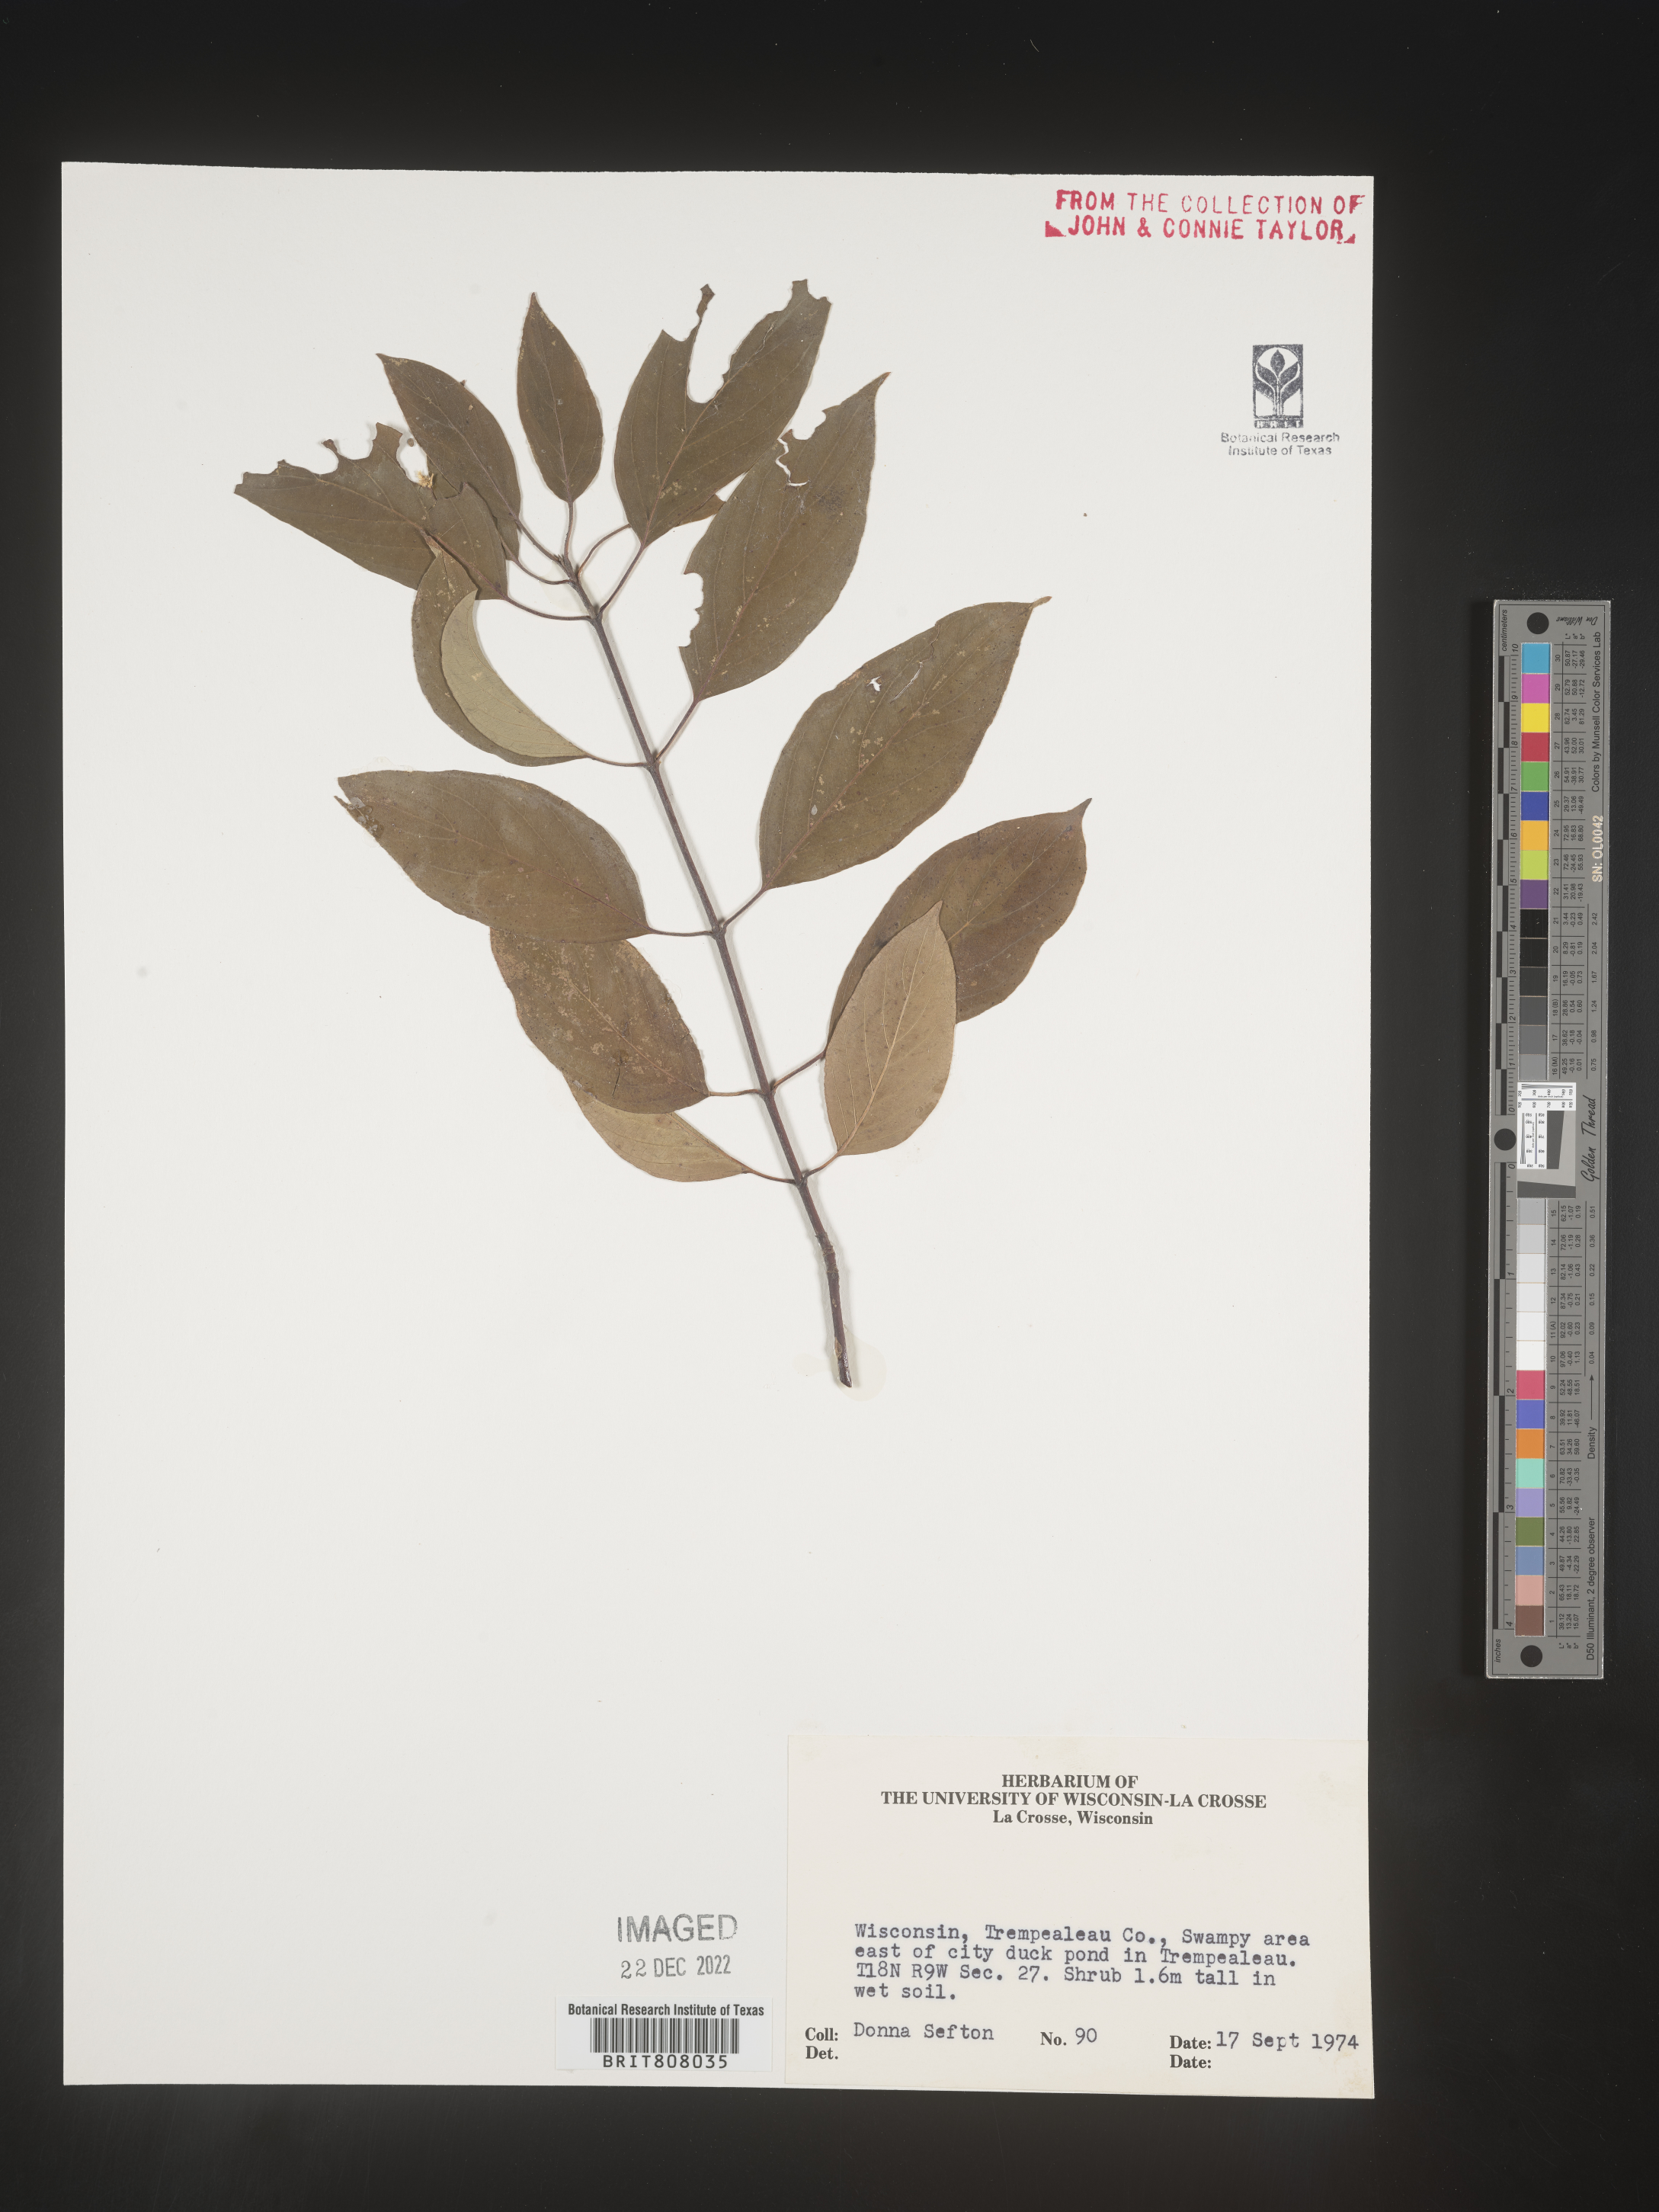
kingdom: Plantae
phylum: Tracheophyta
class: Magnoliopsida
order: Cornales
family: Cornaceae
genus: Cornus
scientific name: Cornus
